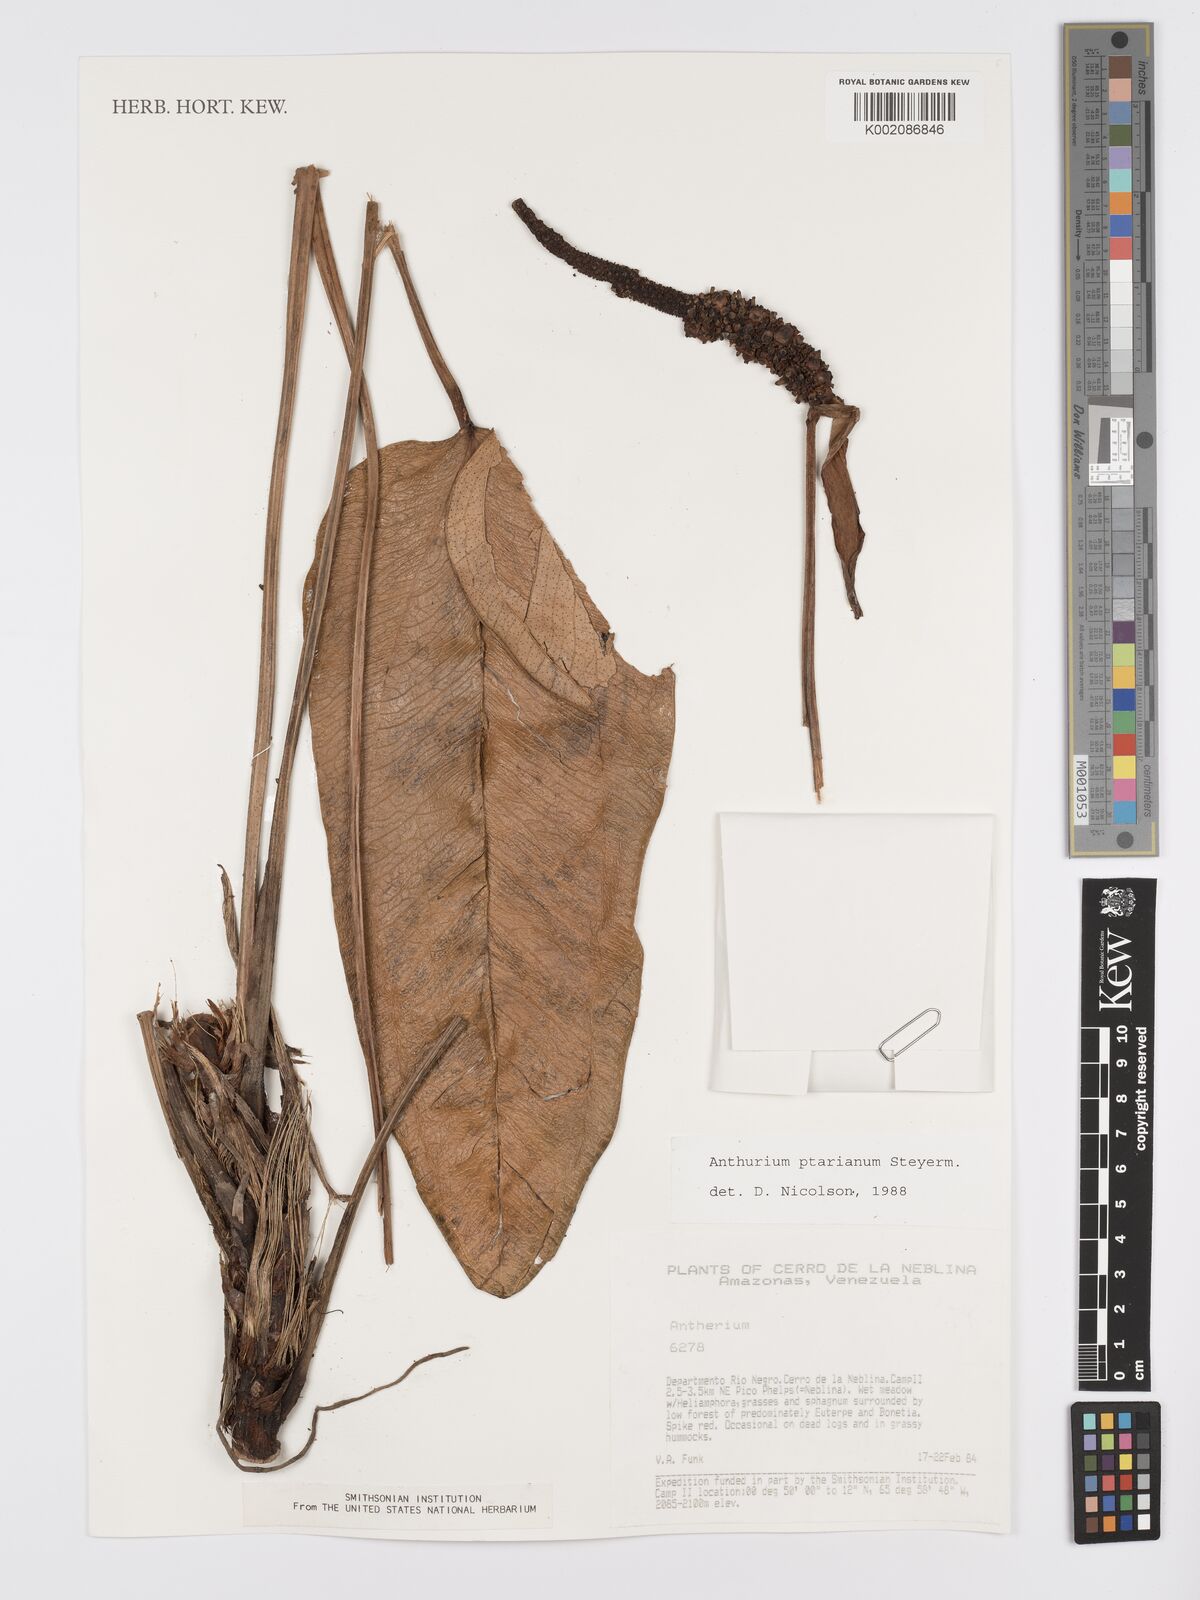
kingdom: Plantae
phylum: Tracheophyta
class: Liliopsida
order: Alismatales
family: Araceae
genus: Anthurium
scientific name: Anthurium ptarianum
